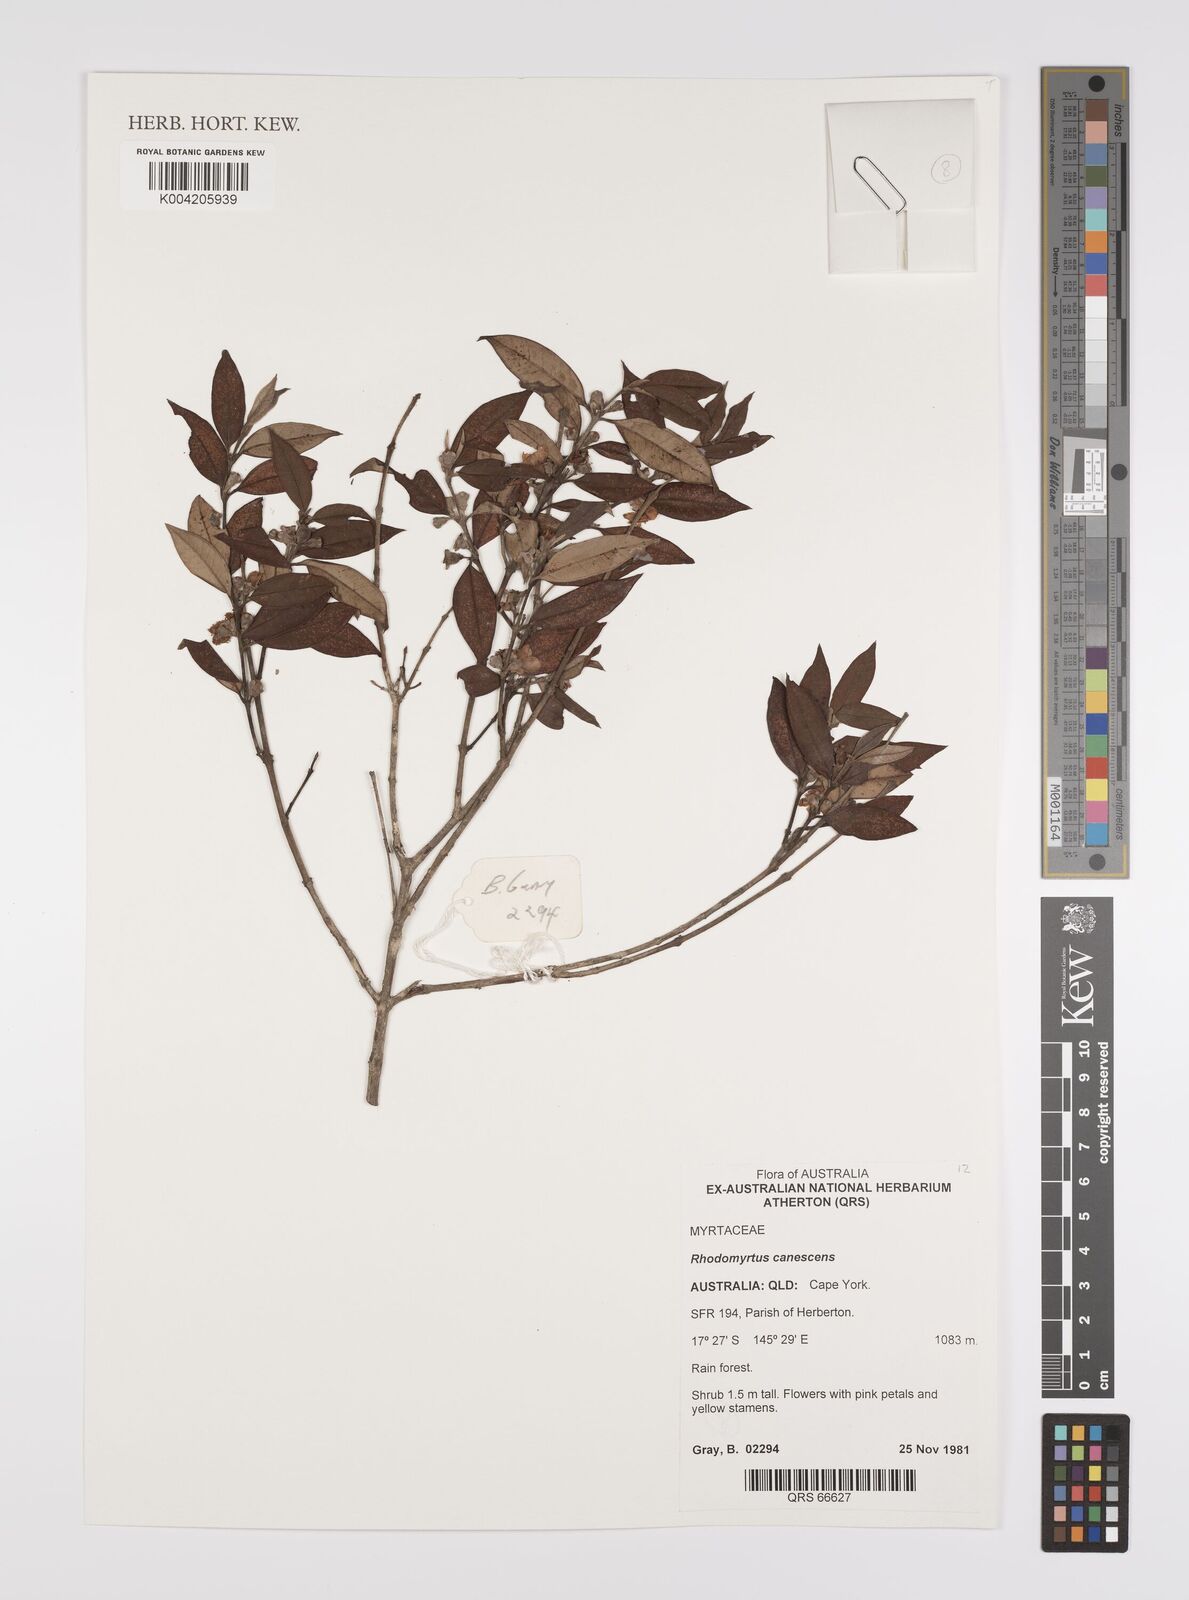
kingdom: Plantae
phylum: Tracheophyta
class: Magnoliopsida
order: Myrtales
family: Myrtaceae
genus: Rhodomyrtus
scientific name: Rhodomyrtus trineura
